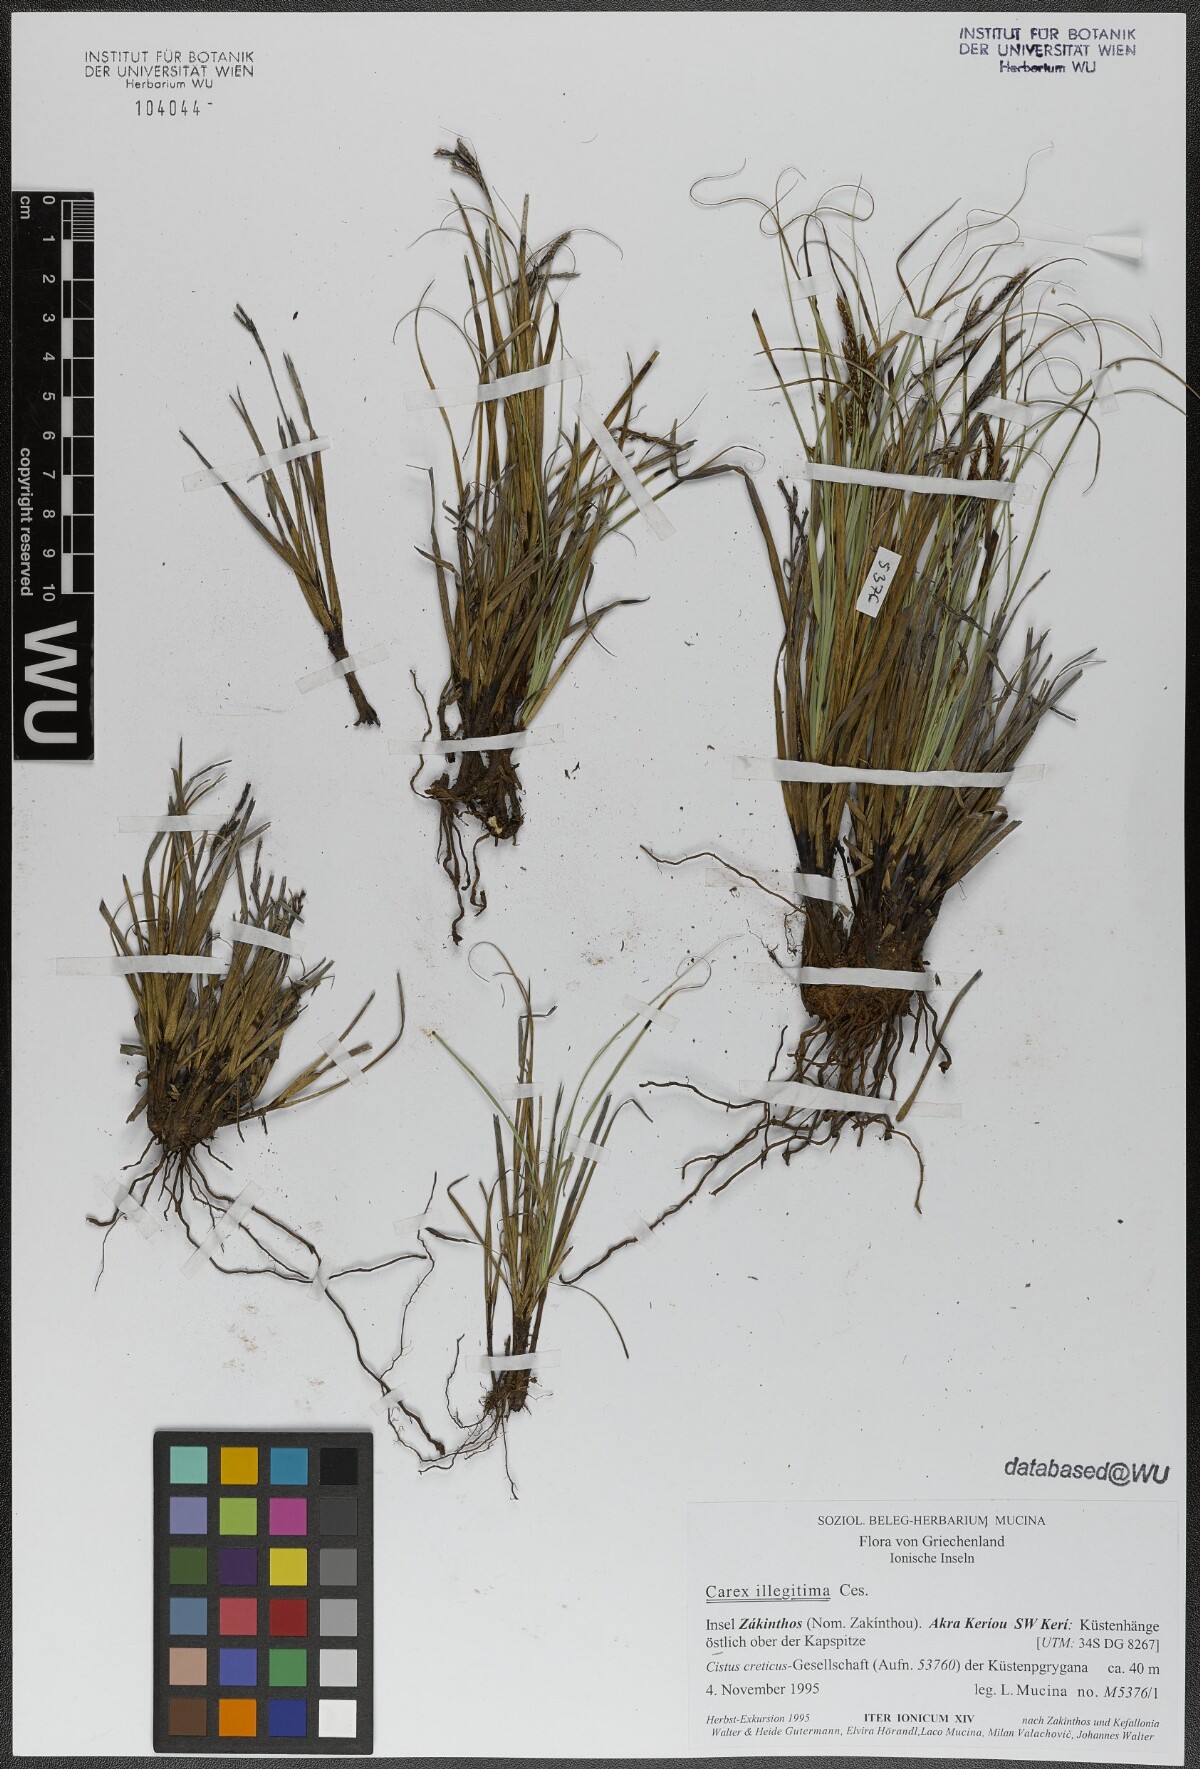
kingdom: Plantae
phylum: Tracheophyta
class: Liliopsida
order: Poales
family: Cyperaceae
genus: Carex
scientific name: Carex illegitima
